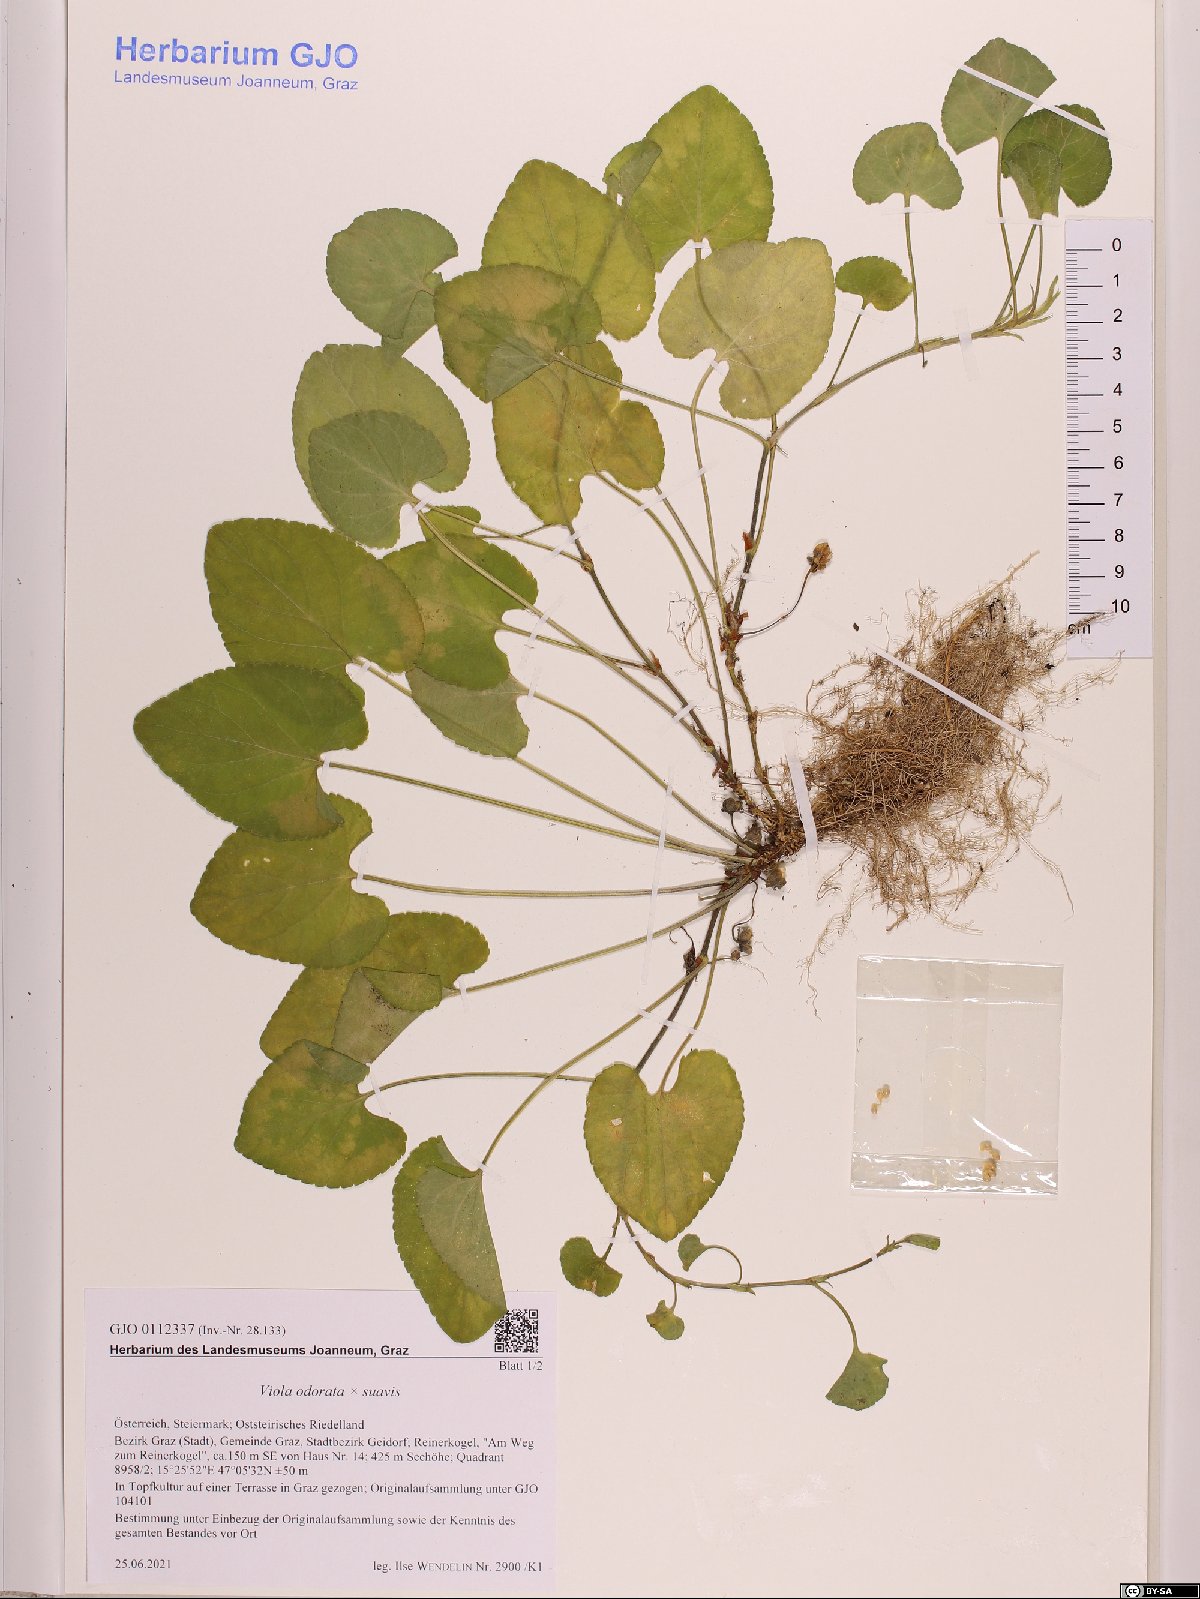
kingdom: Plantae
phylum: Tracheophyta
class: Magnoliopsida
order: Malpighiales
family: Violaceae
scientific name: Violaceae
